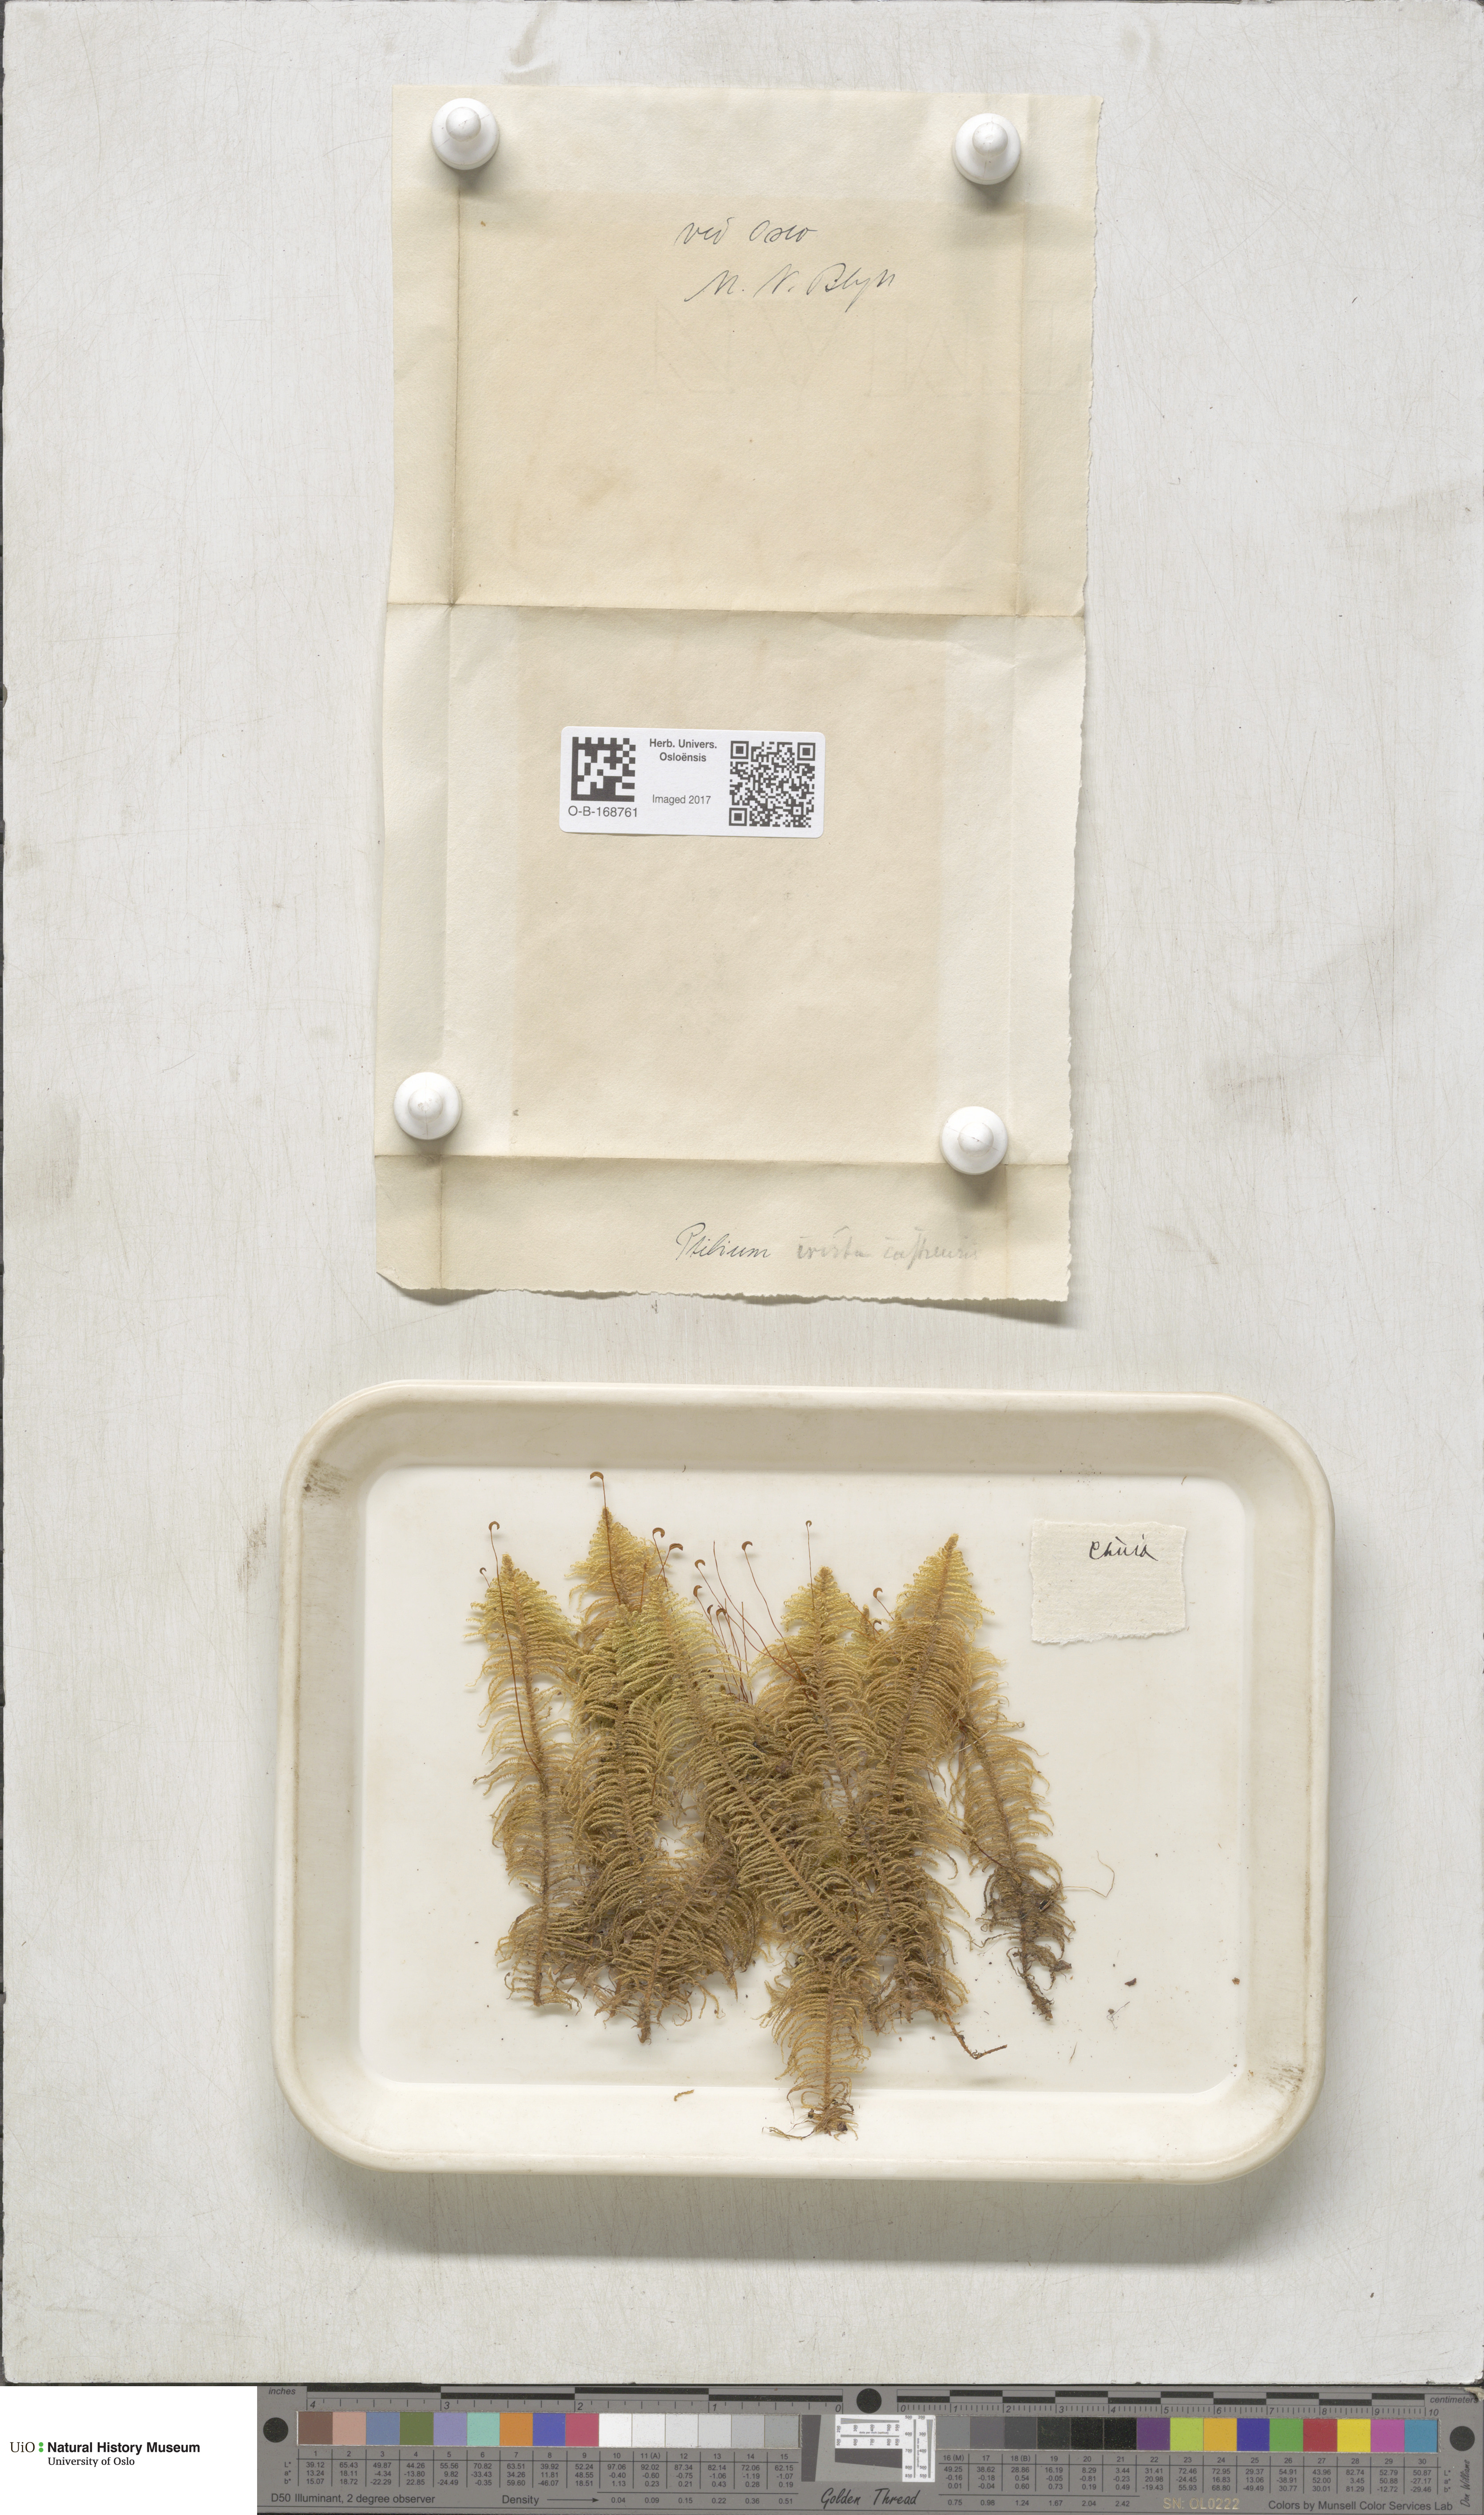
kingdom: Plantae
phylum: Bryophyta
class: Bryopsida
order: Hypnales
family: Pylaisiaceae
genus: Ptilium
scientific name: Ptilium crista-castrensis
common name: Knight's plume moss
